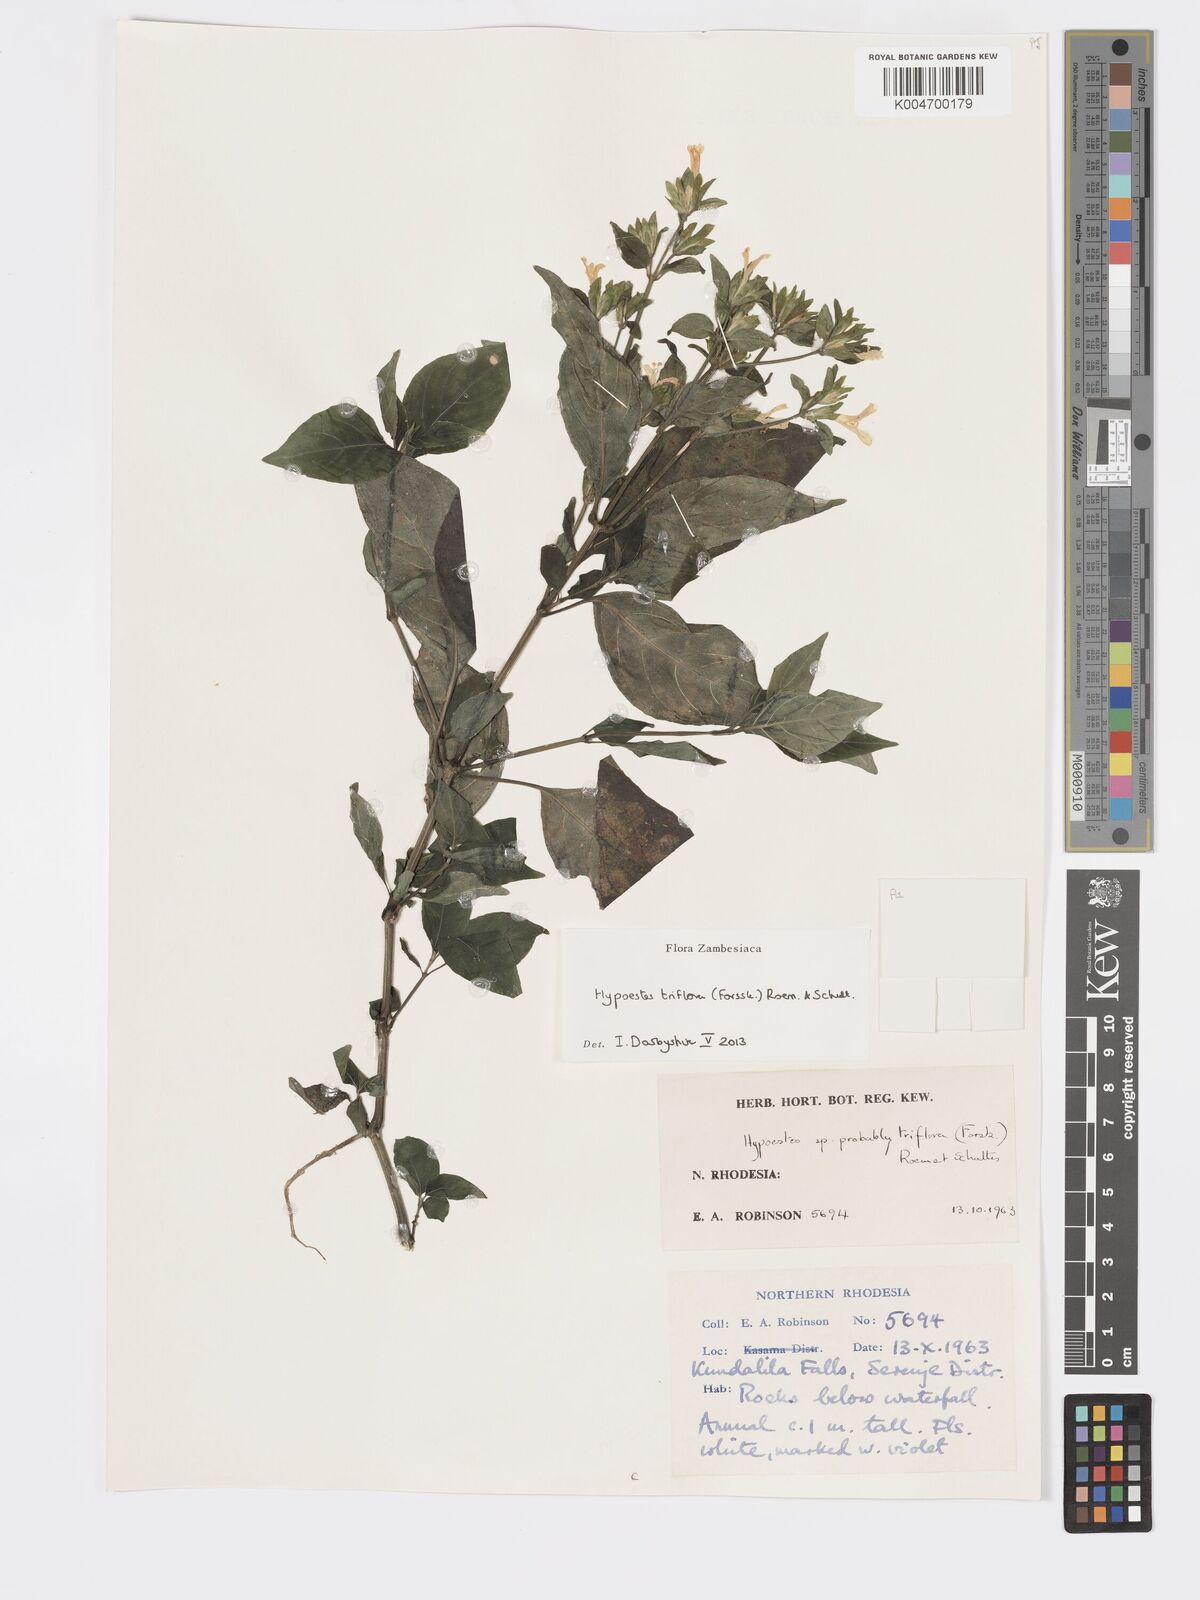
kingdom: Plantae
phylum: Tracheophyta
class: Magnoliopsida
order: Lamiales
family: Acanthaceae
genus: Hypoestes
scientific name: Hypoestes triflora
